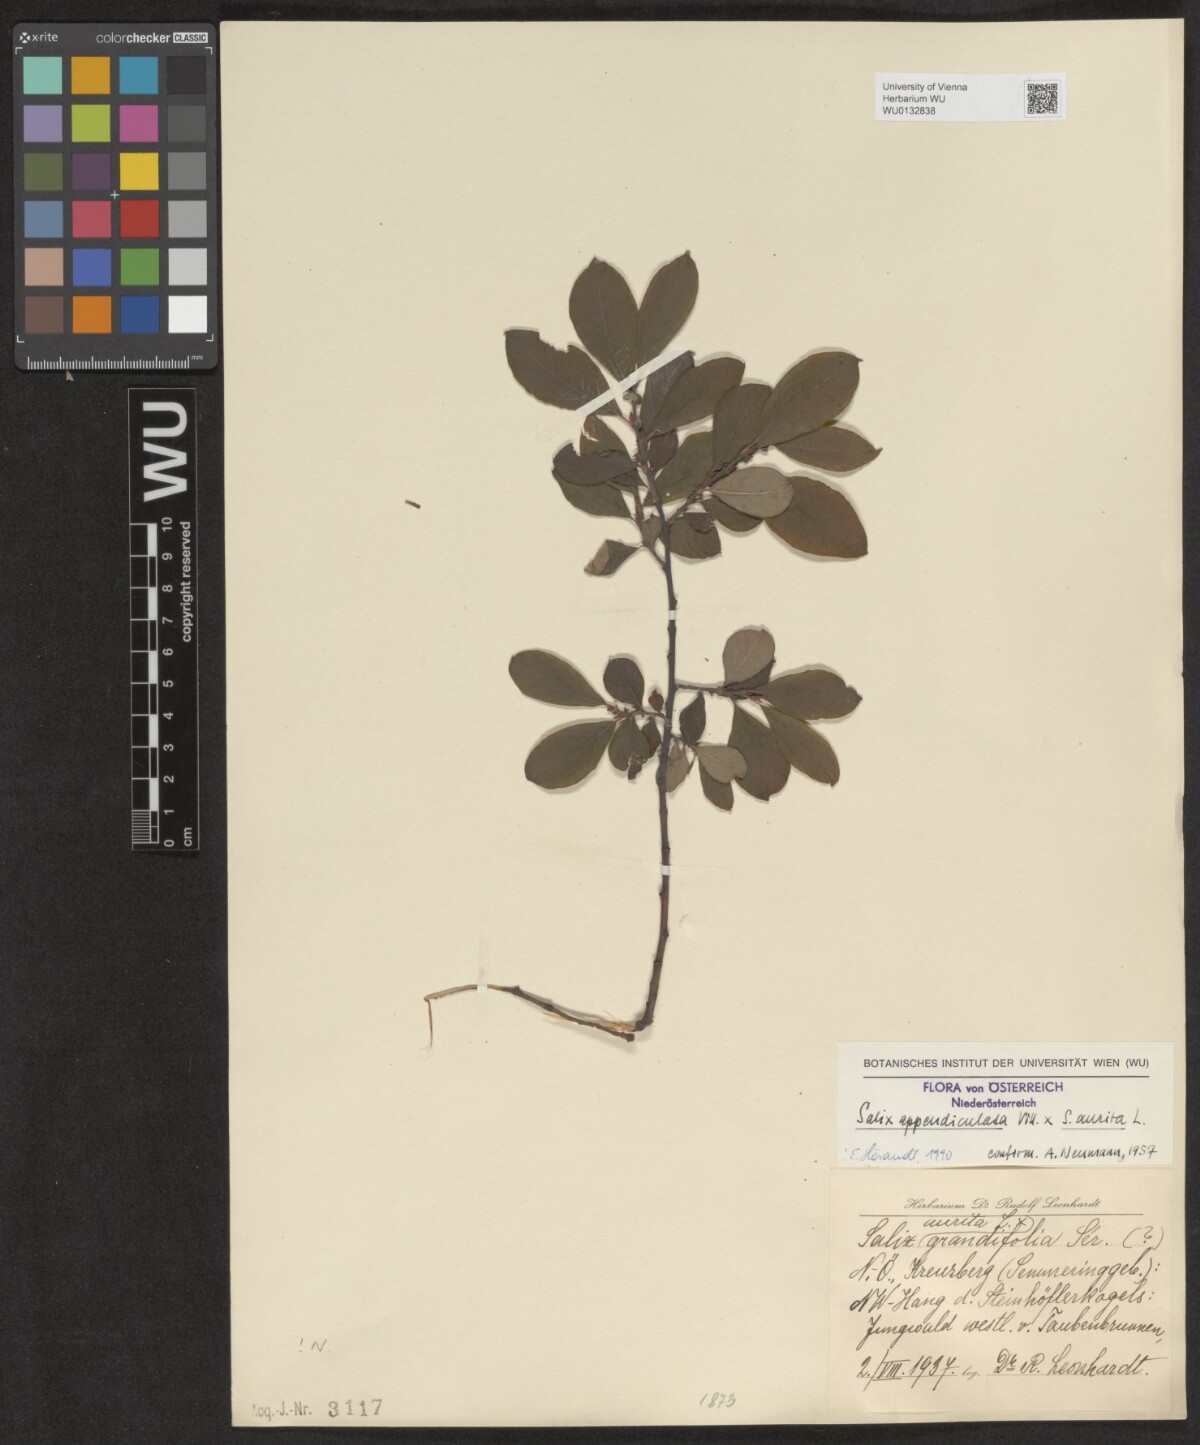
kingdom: Plantae
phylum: Tracheophyta
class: Magnoliopsida
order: Malpighiales
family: Salicaceae
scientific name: Salicaceae
